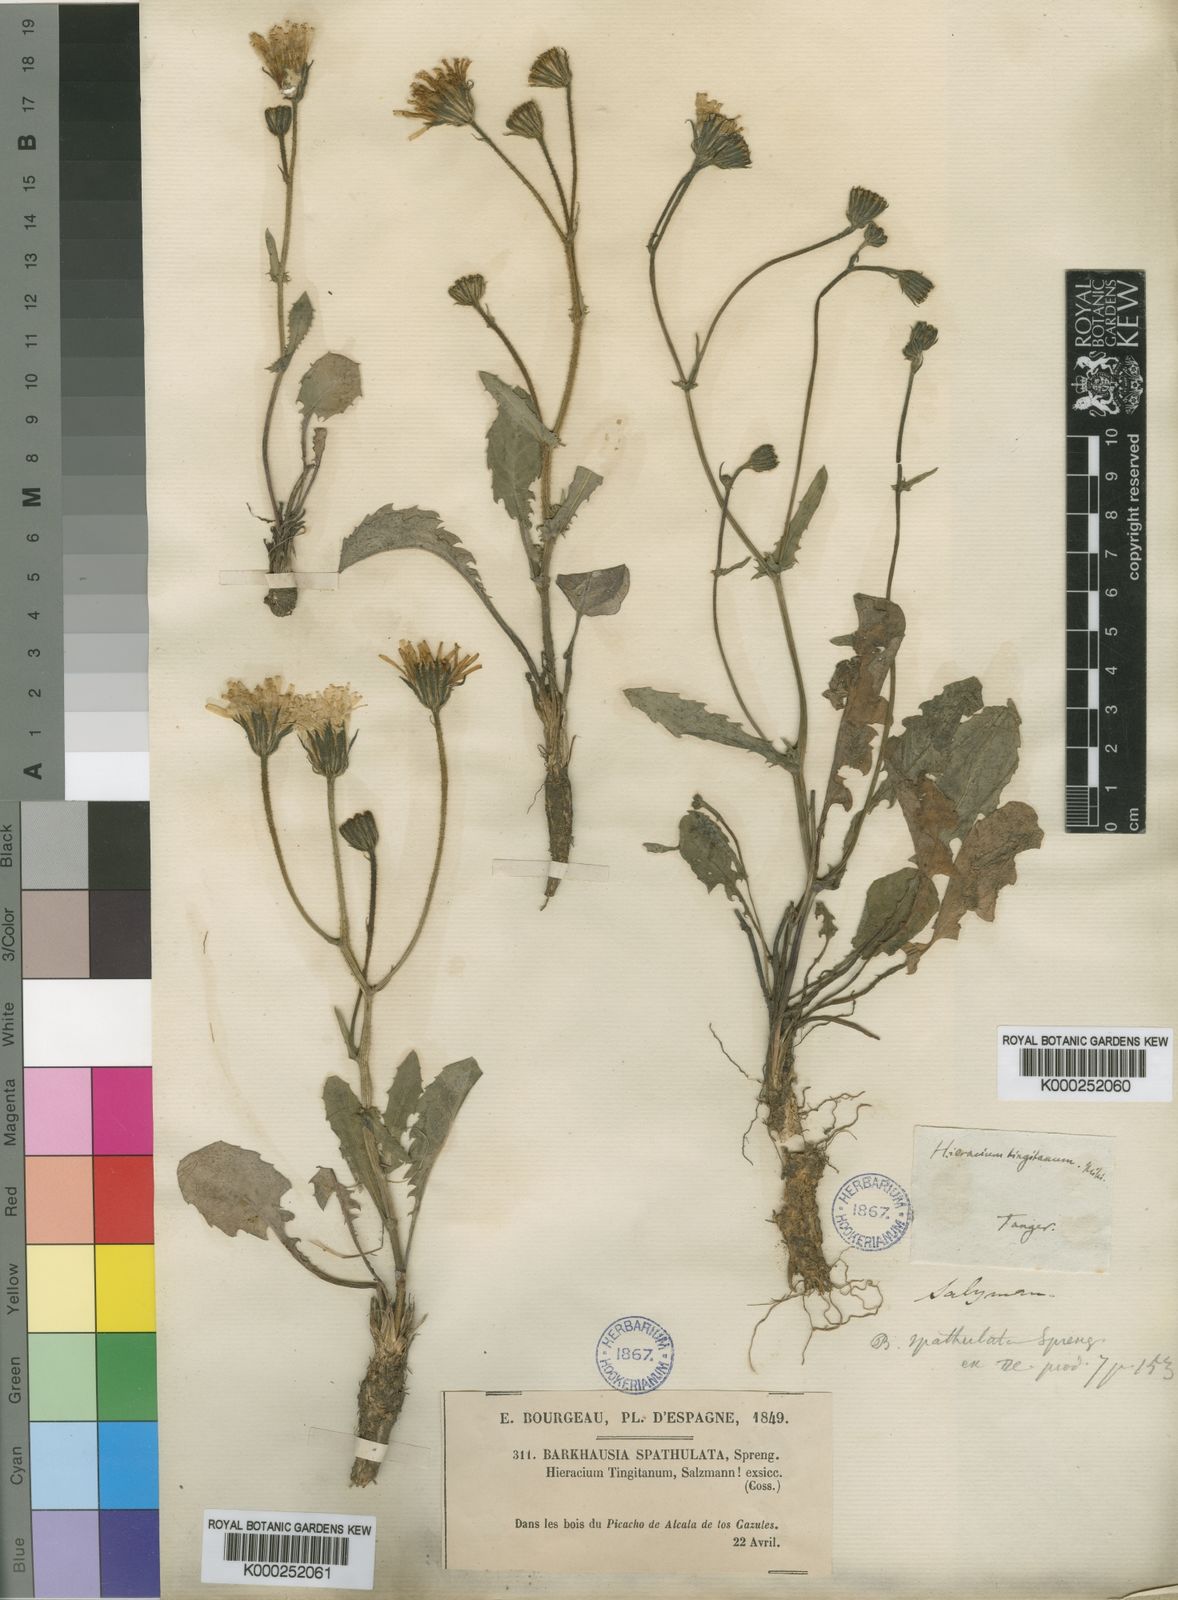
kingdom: Plantae
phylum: Tracheophyta
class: Magnoliopsida
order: Asterales
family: Asteraceae
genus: Crepis
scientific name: Crepis tingitana
